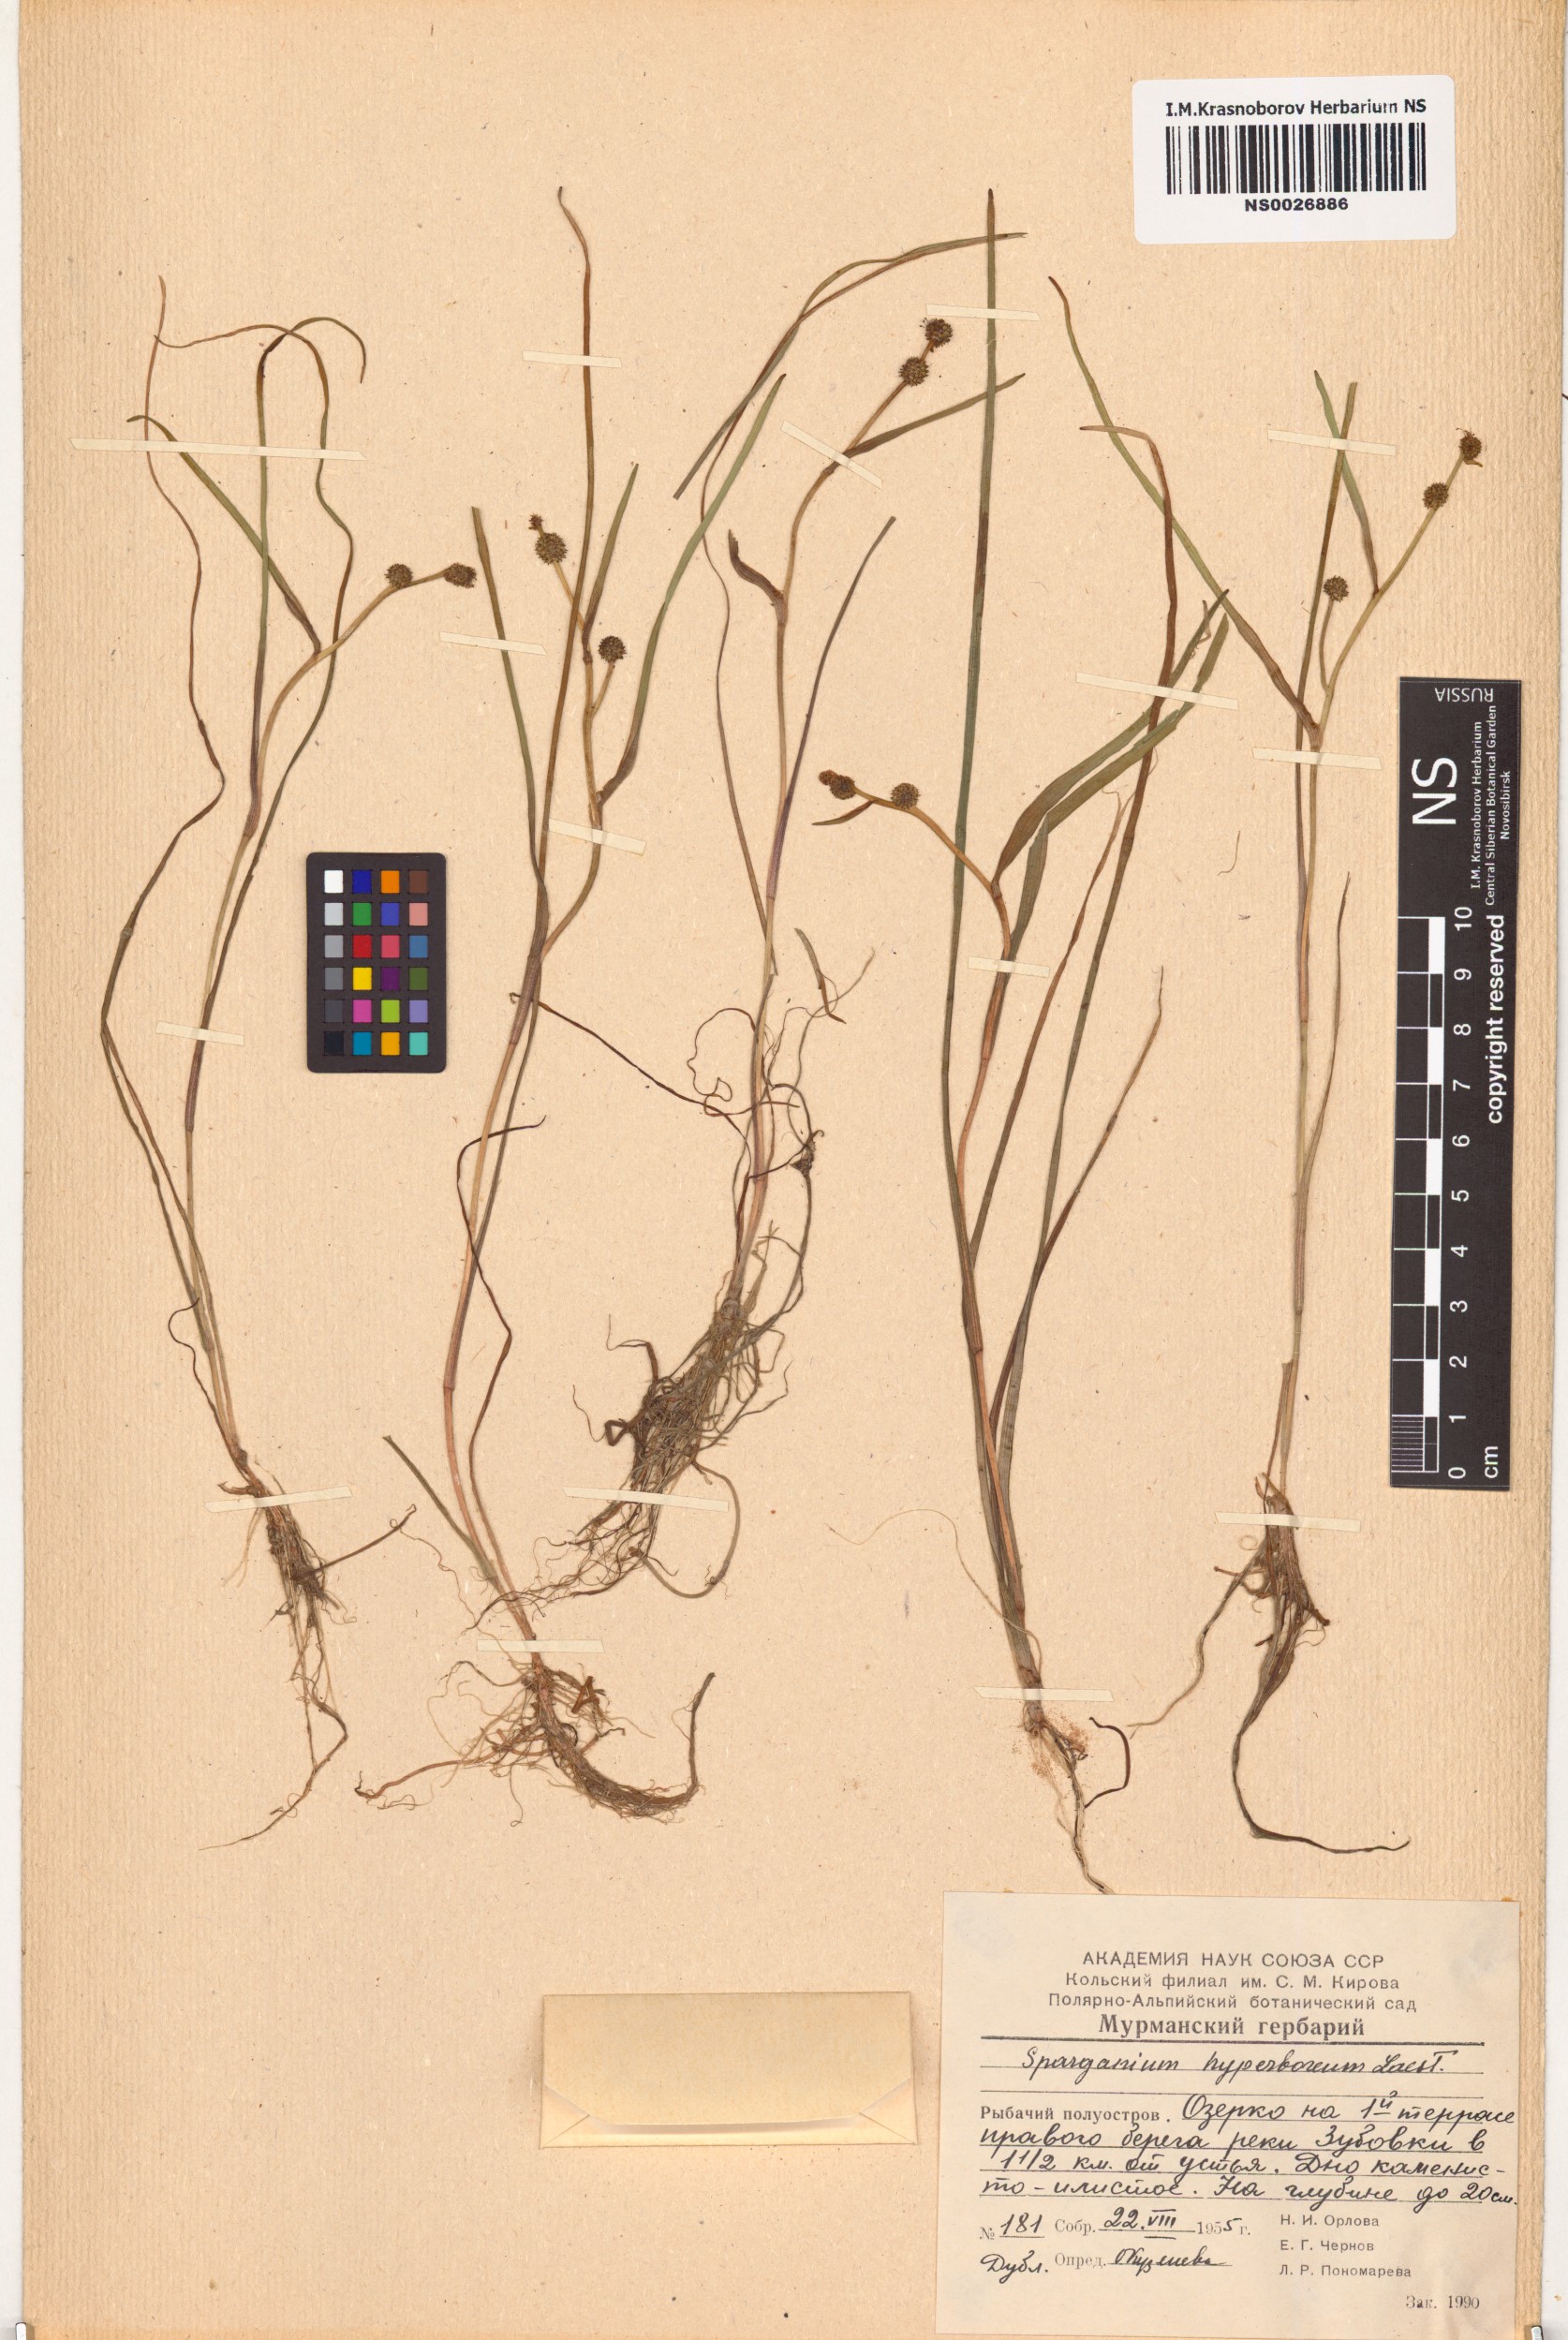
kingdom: Plantae
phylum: Tracheophyta
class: Liliopsida
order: Poales
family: Typhaceae
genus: Sparganium
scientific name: Sparganium hyperboreum
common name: Arctic burreed
